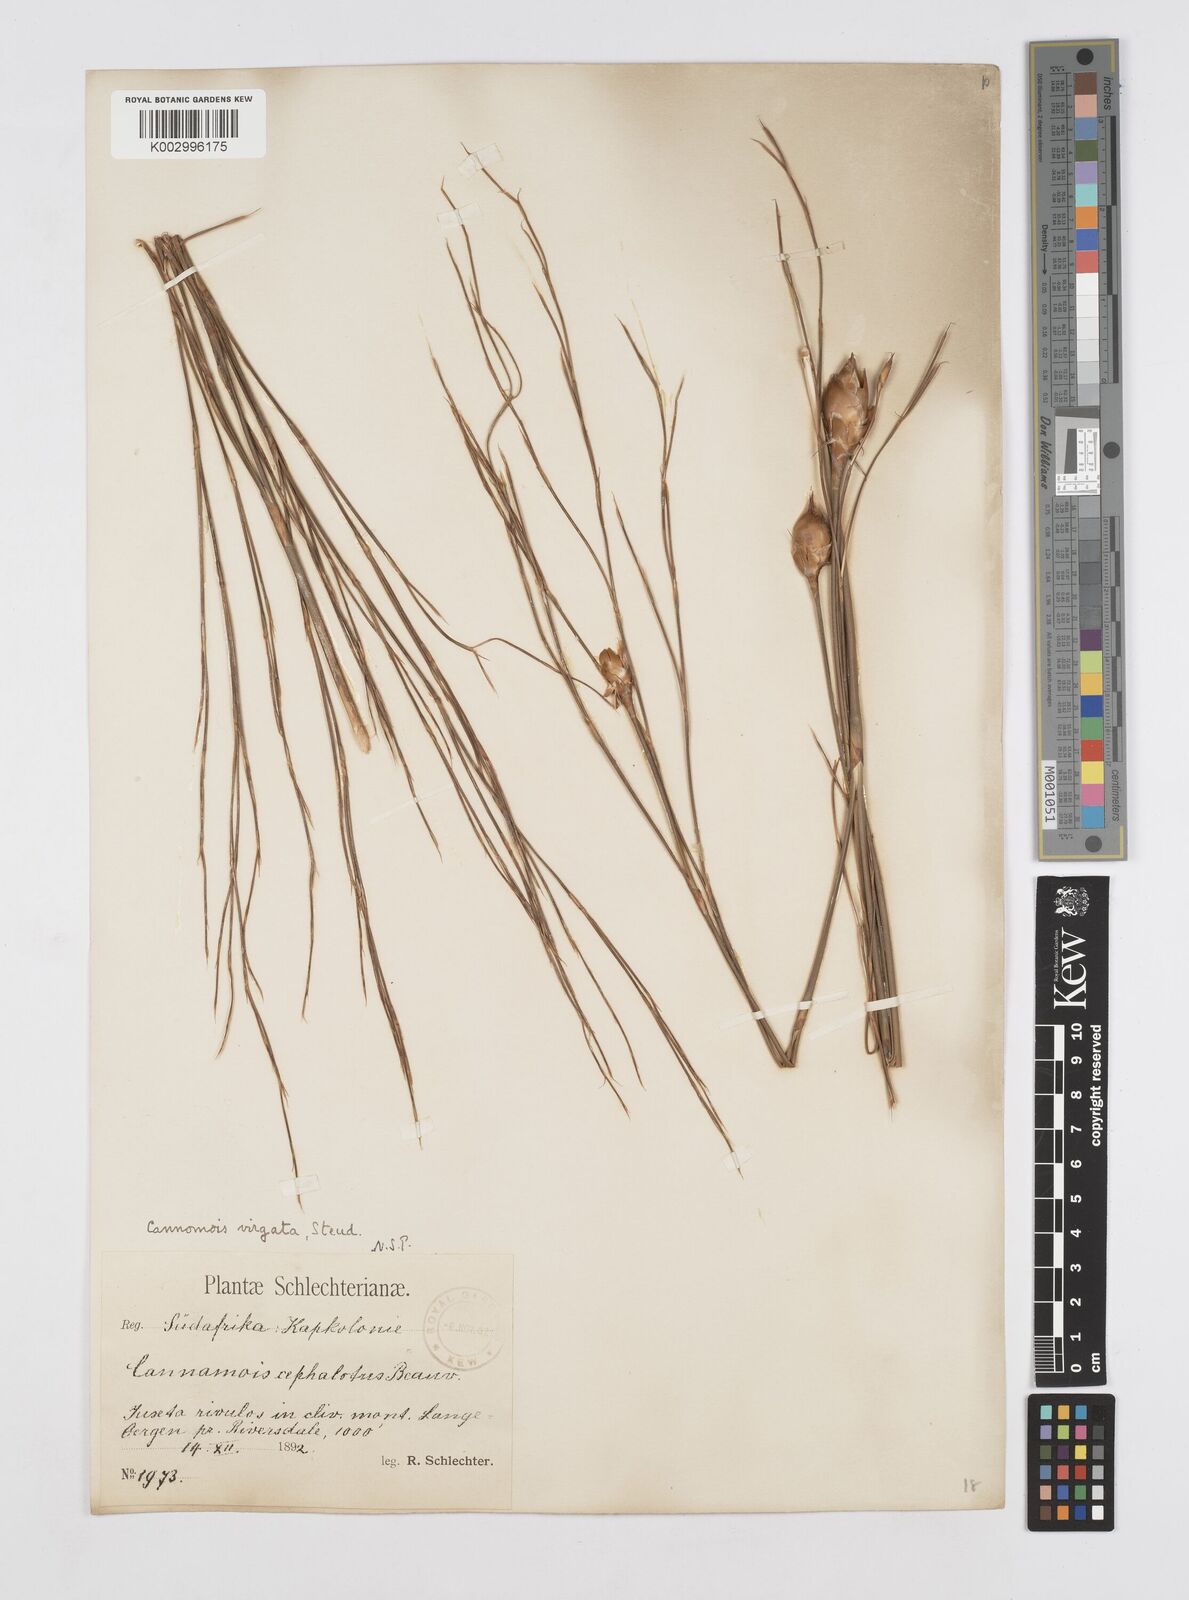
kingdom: Plantae
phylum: Tracheophyta
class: Liliopsida
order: Poales
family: Restionaceae
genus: Cannomois
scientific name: Cannomois virgata
